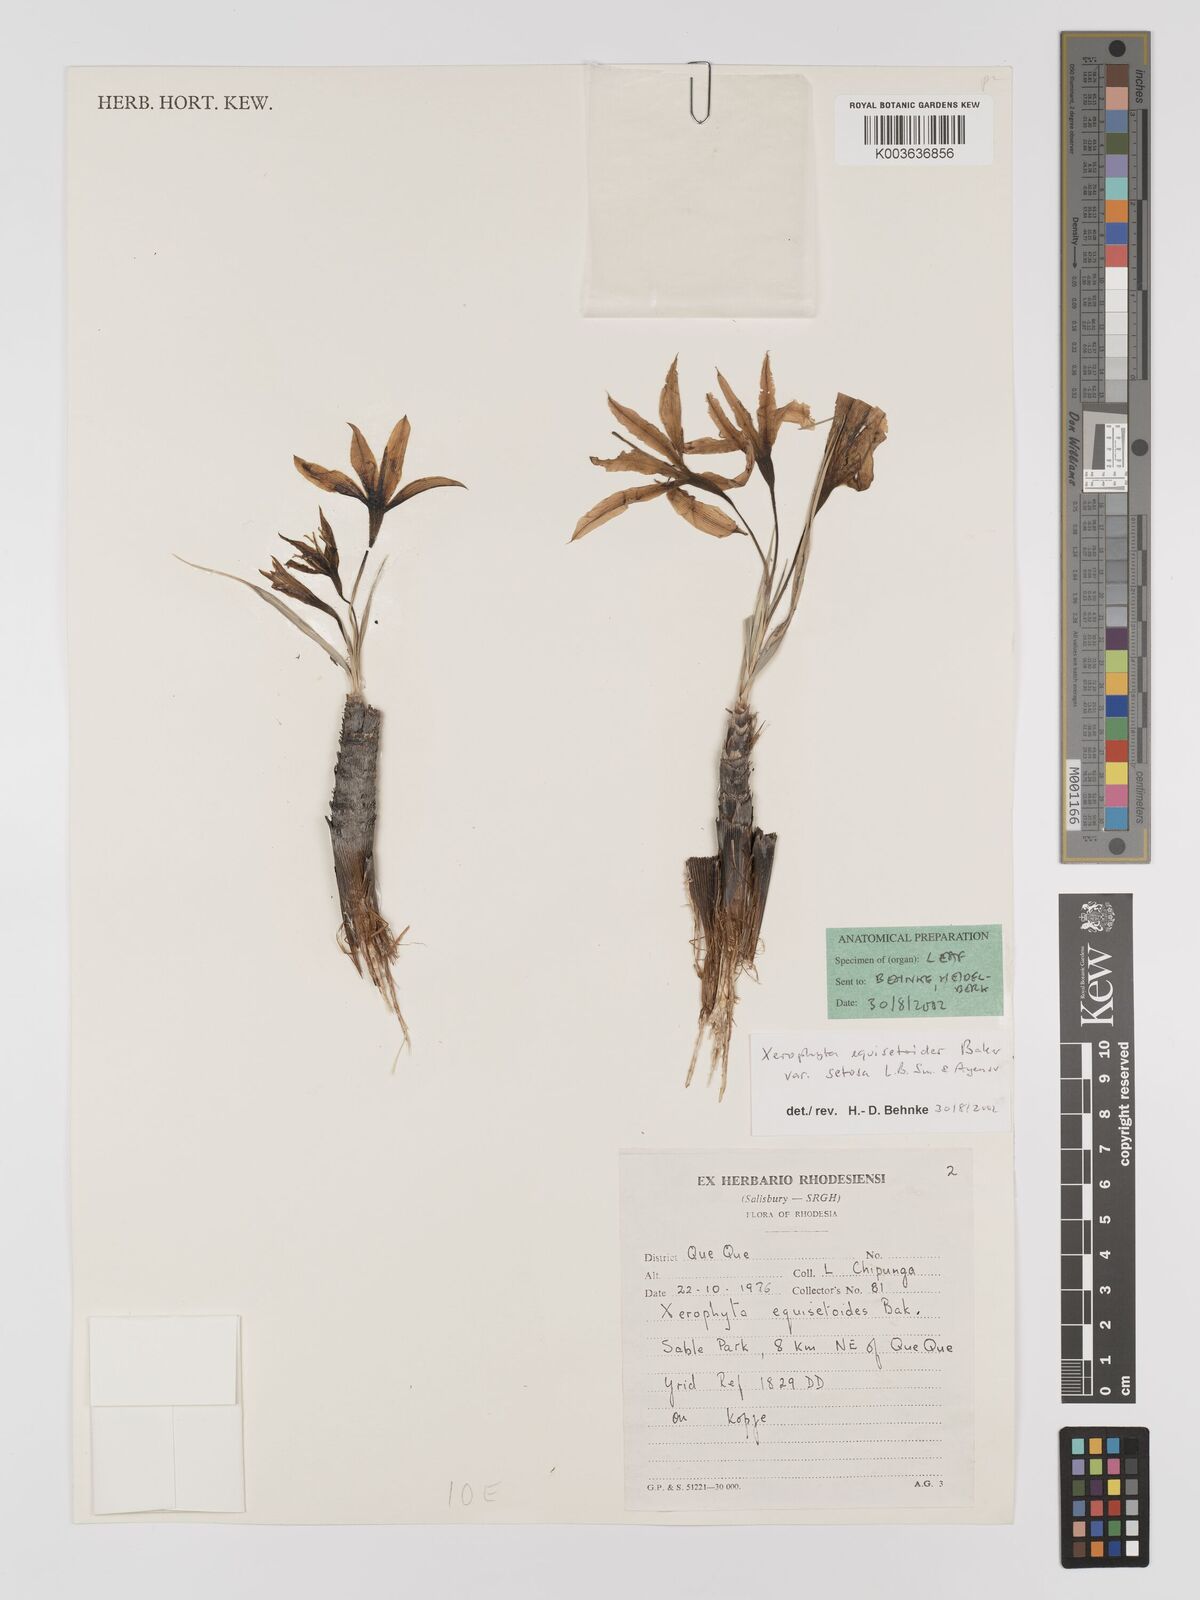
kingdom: Plantae
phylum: Tracheophyta
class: Liliopsida
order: Pandanales
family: Velloziaceae
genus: Xerophyta
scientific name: Xerophyta equisetoides
